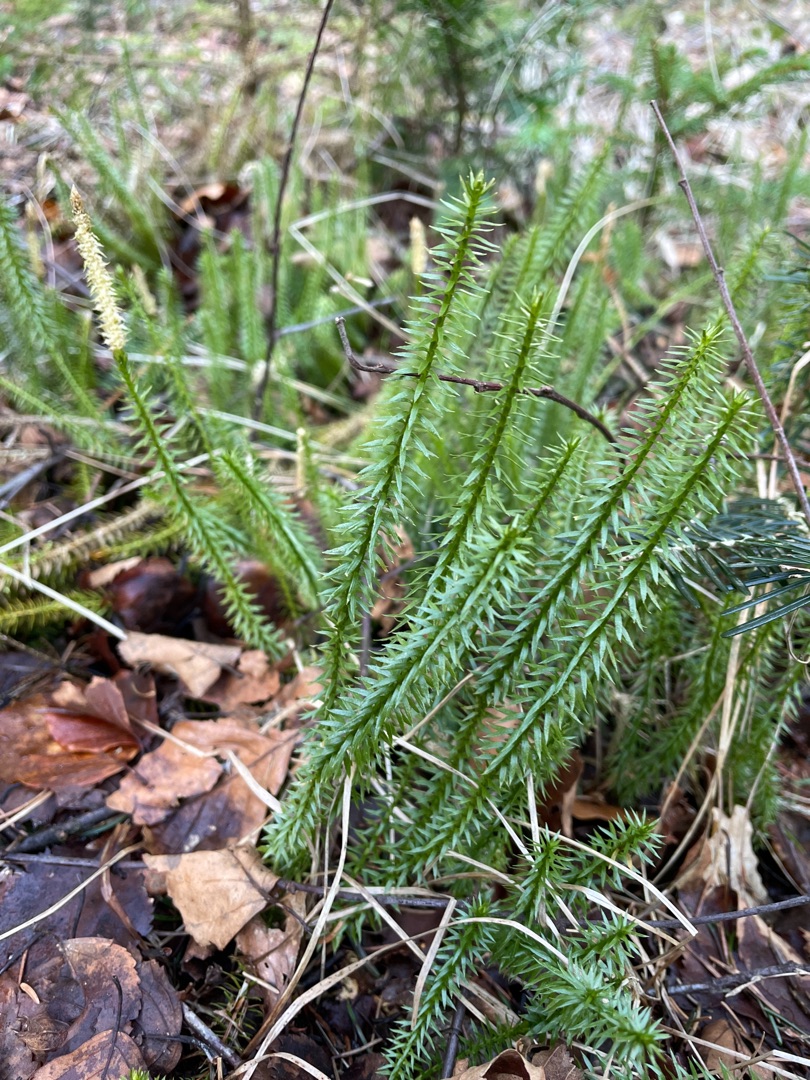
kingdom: Plantae
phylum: Tracheophyta
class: Lycopodiopsida
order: Lycopodiales
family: Lycopodiaceae
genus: Spinulum
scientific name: Spinulum annotinum
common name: Femradet ulvefod
